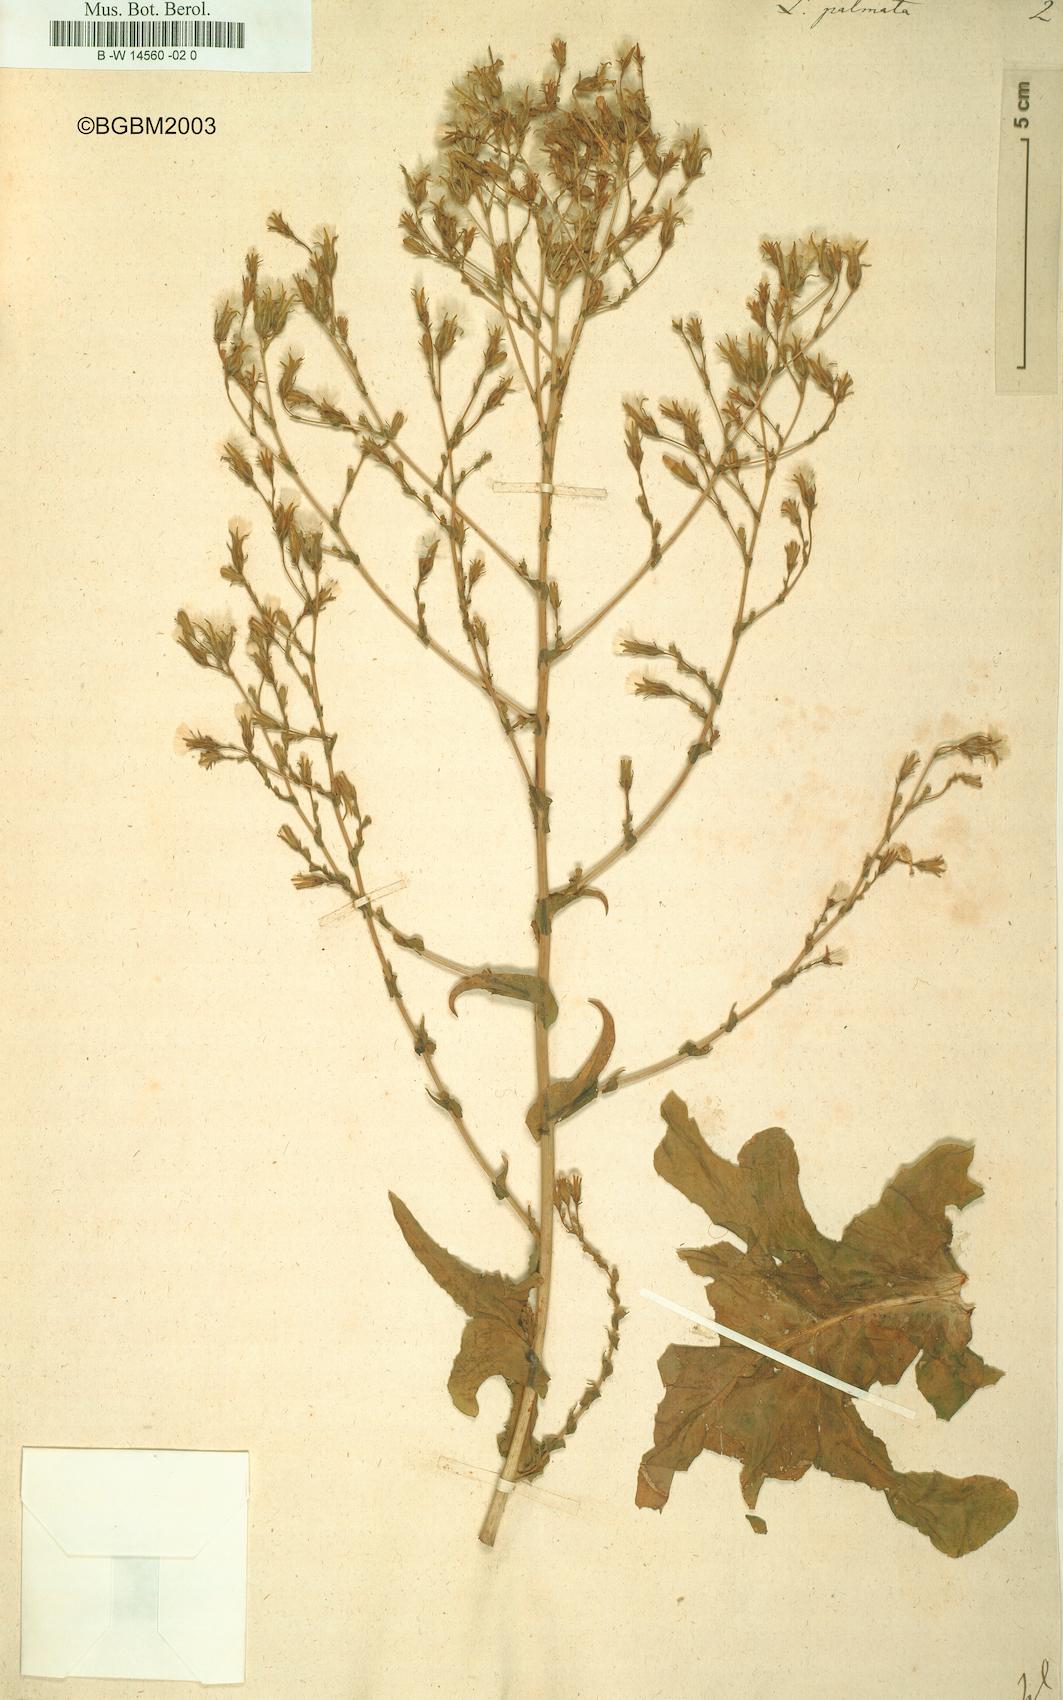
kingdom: Plantae
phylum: Tracheophyta
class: Magnoliopsida
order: Asterales
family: Asteraceae
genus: Lactuca
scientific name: Lactuca sativa
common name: Garden lettuce
